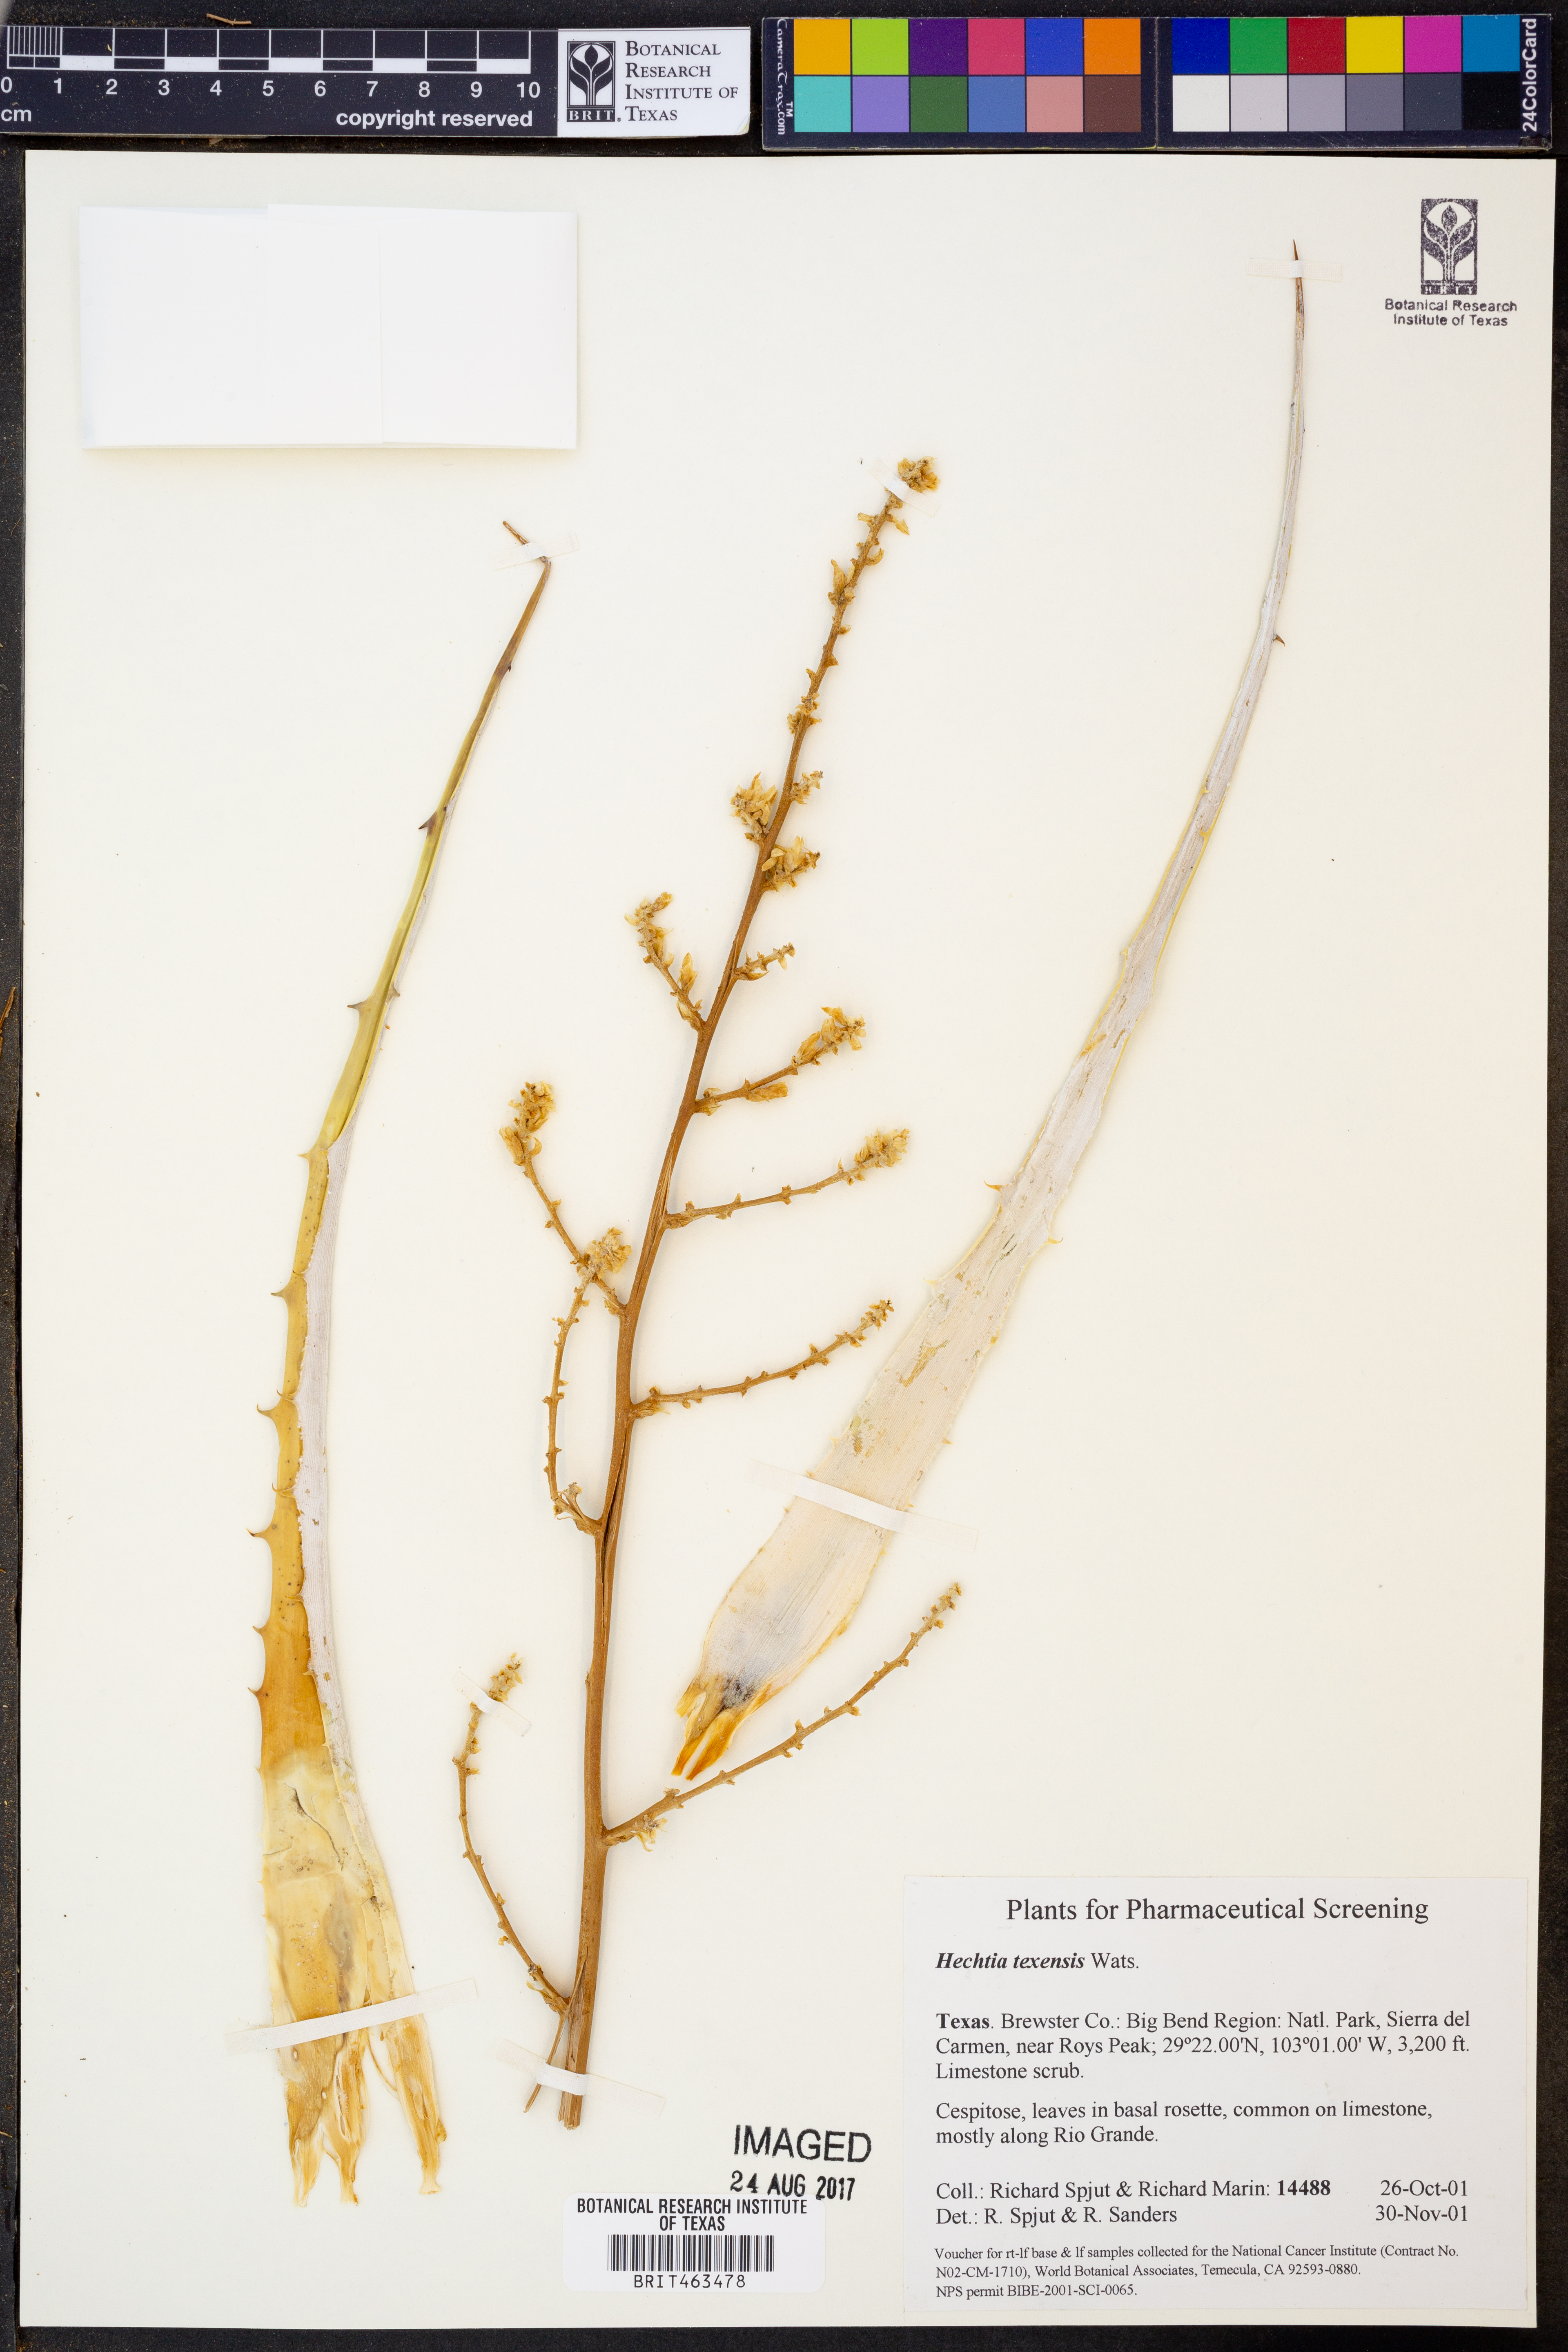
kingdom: Plantae
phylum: Tracheophyta
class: Liliopsida
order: Poales
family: Bromeliaceae
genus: Hechtia
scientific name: Hechtia texensis
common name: False agave
